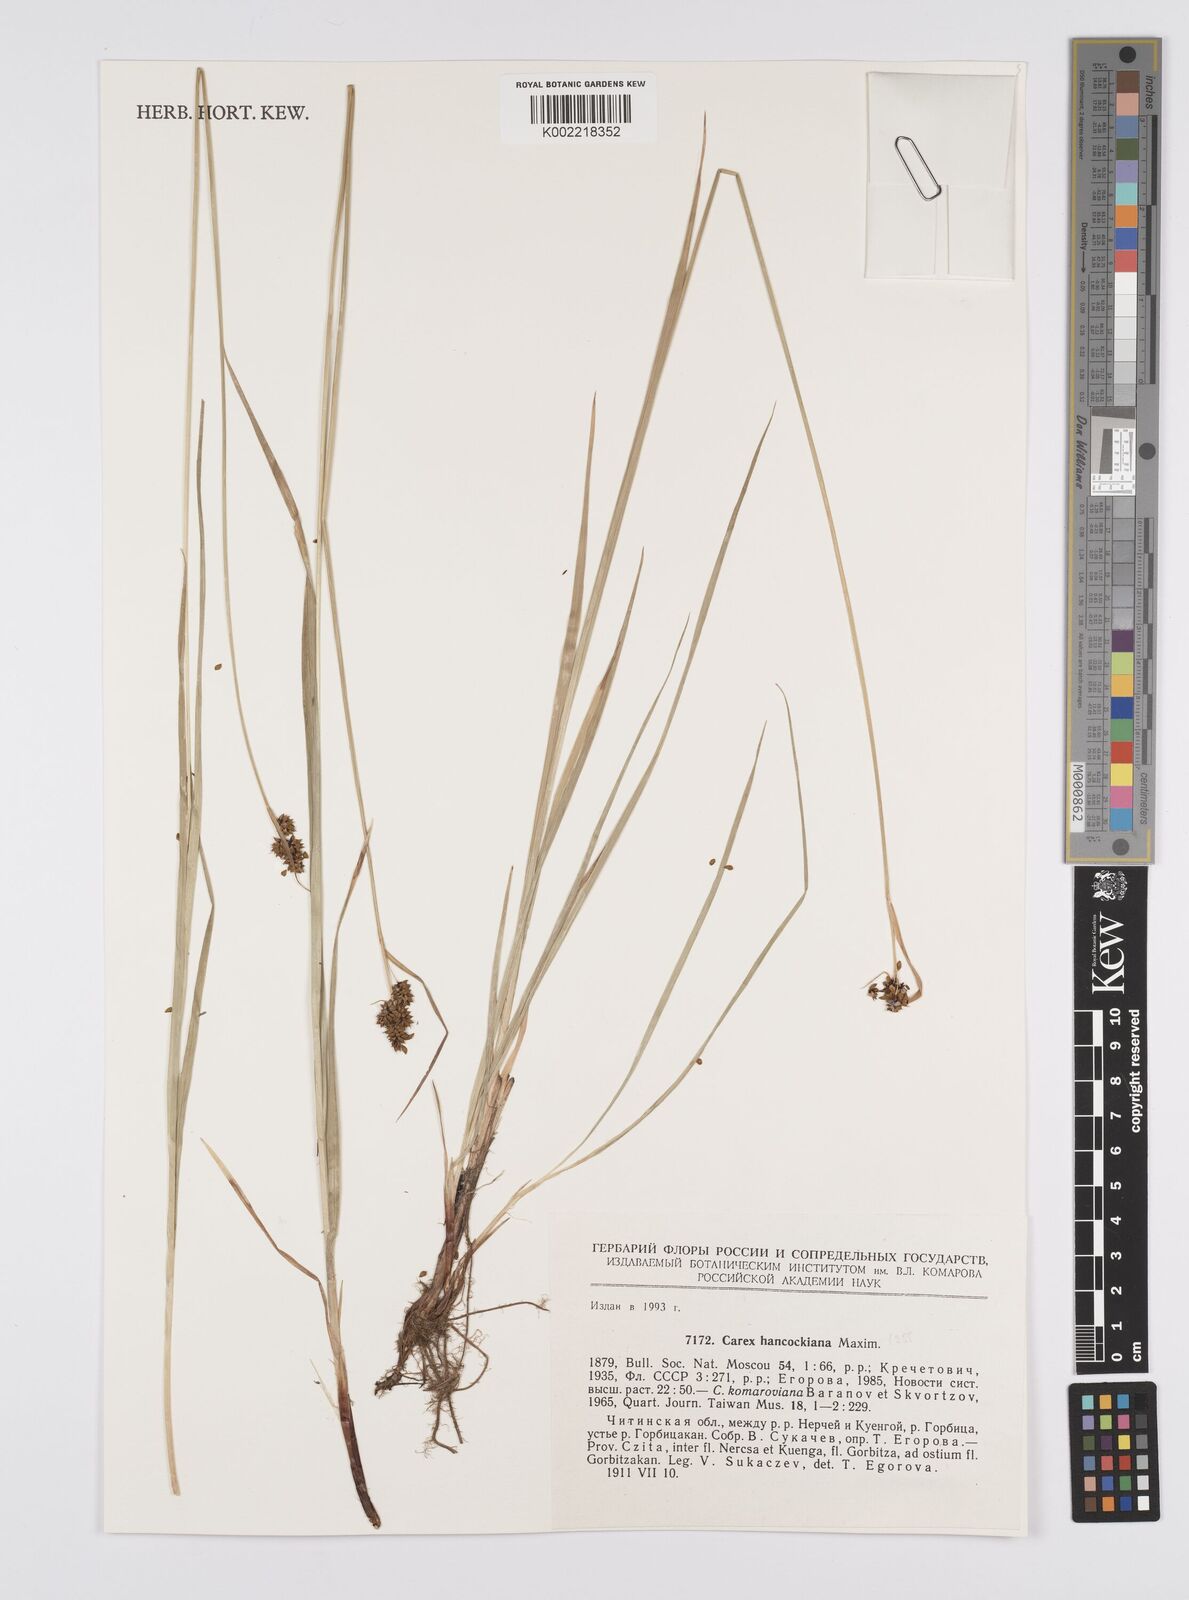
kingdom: Plantae
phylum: Tracheophyta
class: Liliopsida
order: Poales
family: Cyperaceae
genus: Carex
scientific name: Carex hancockiana
